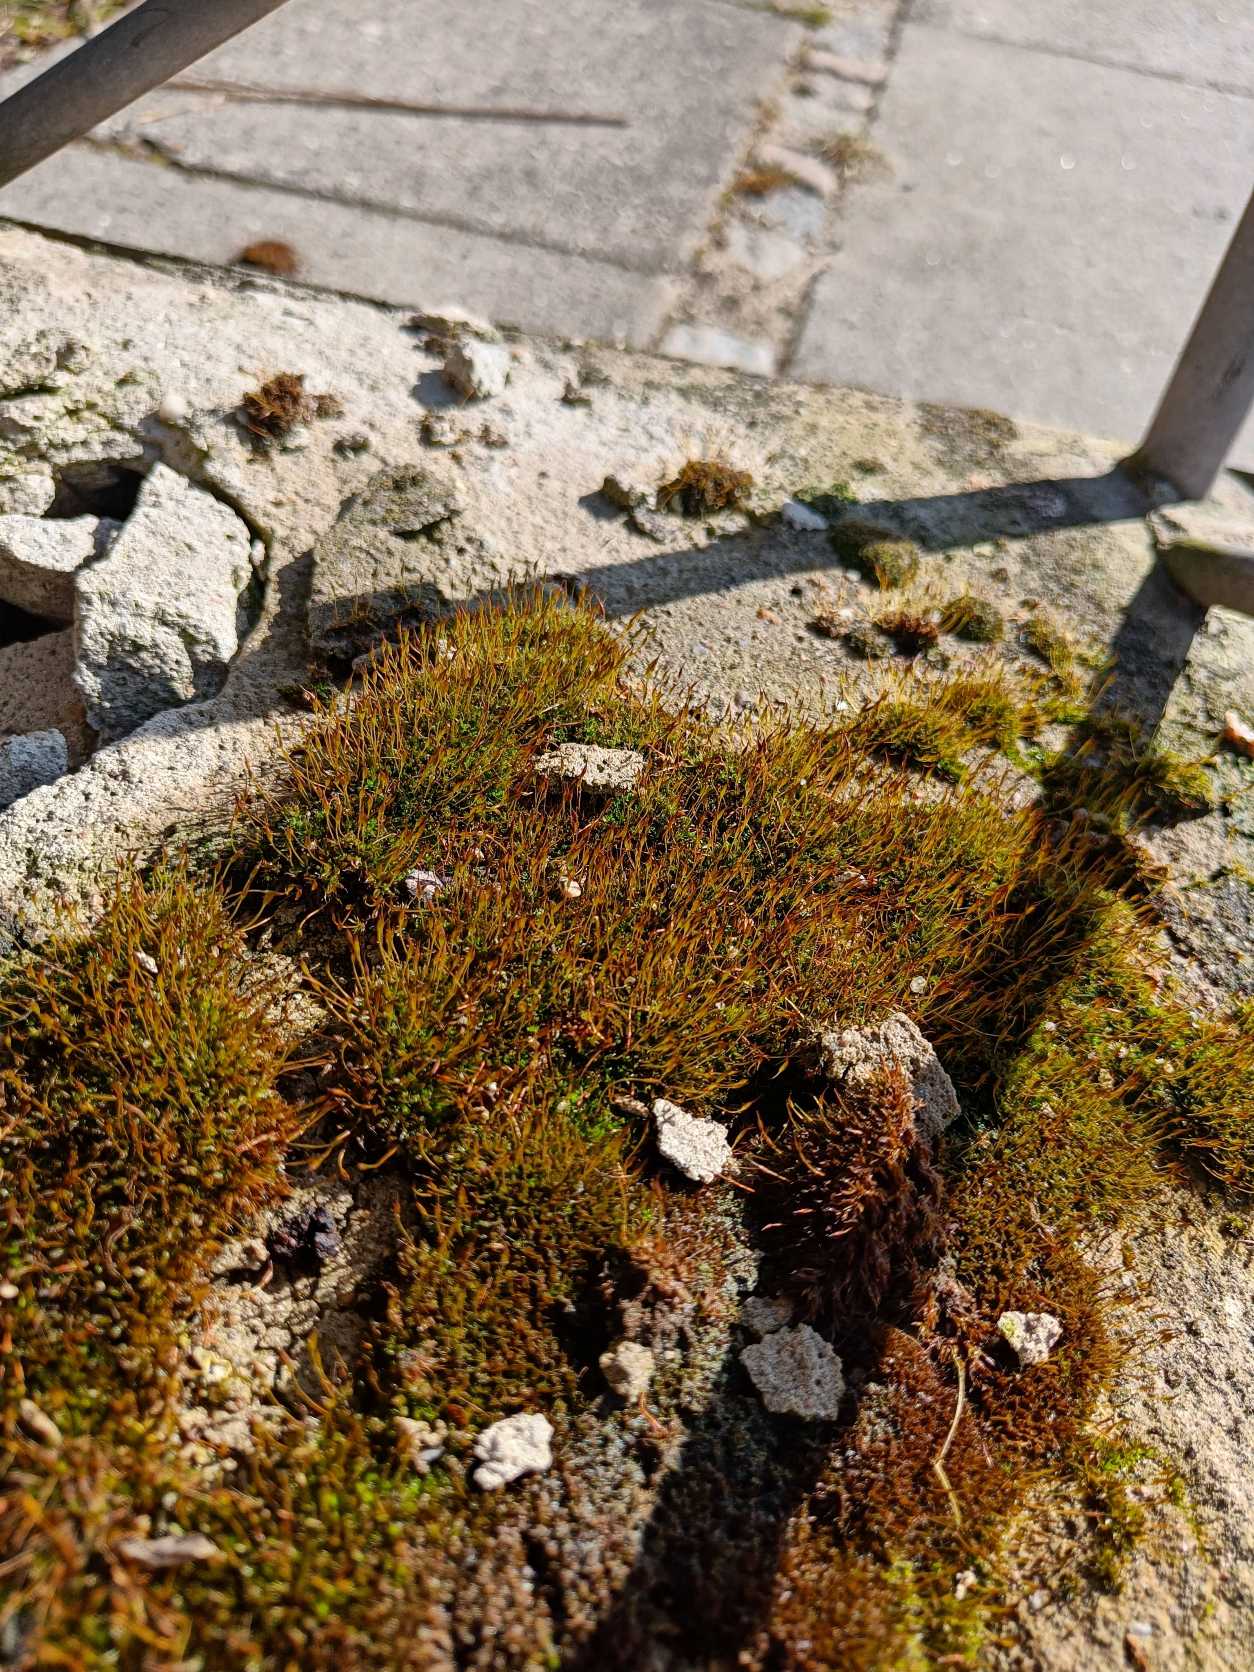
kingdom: Plantae
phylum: Bryophyta
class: Bryopsida
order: Pottiales
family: Pottiaceae
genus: Tortula
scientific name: Tortula muralis
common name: Mur-snotand
